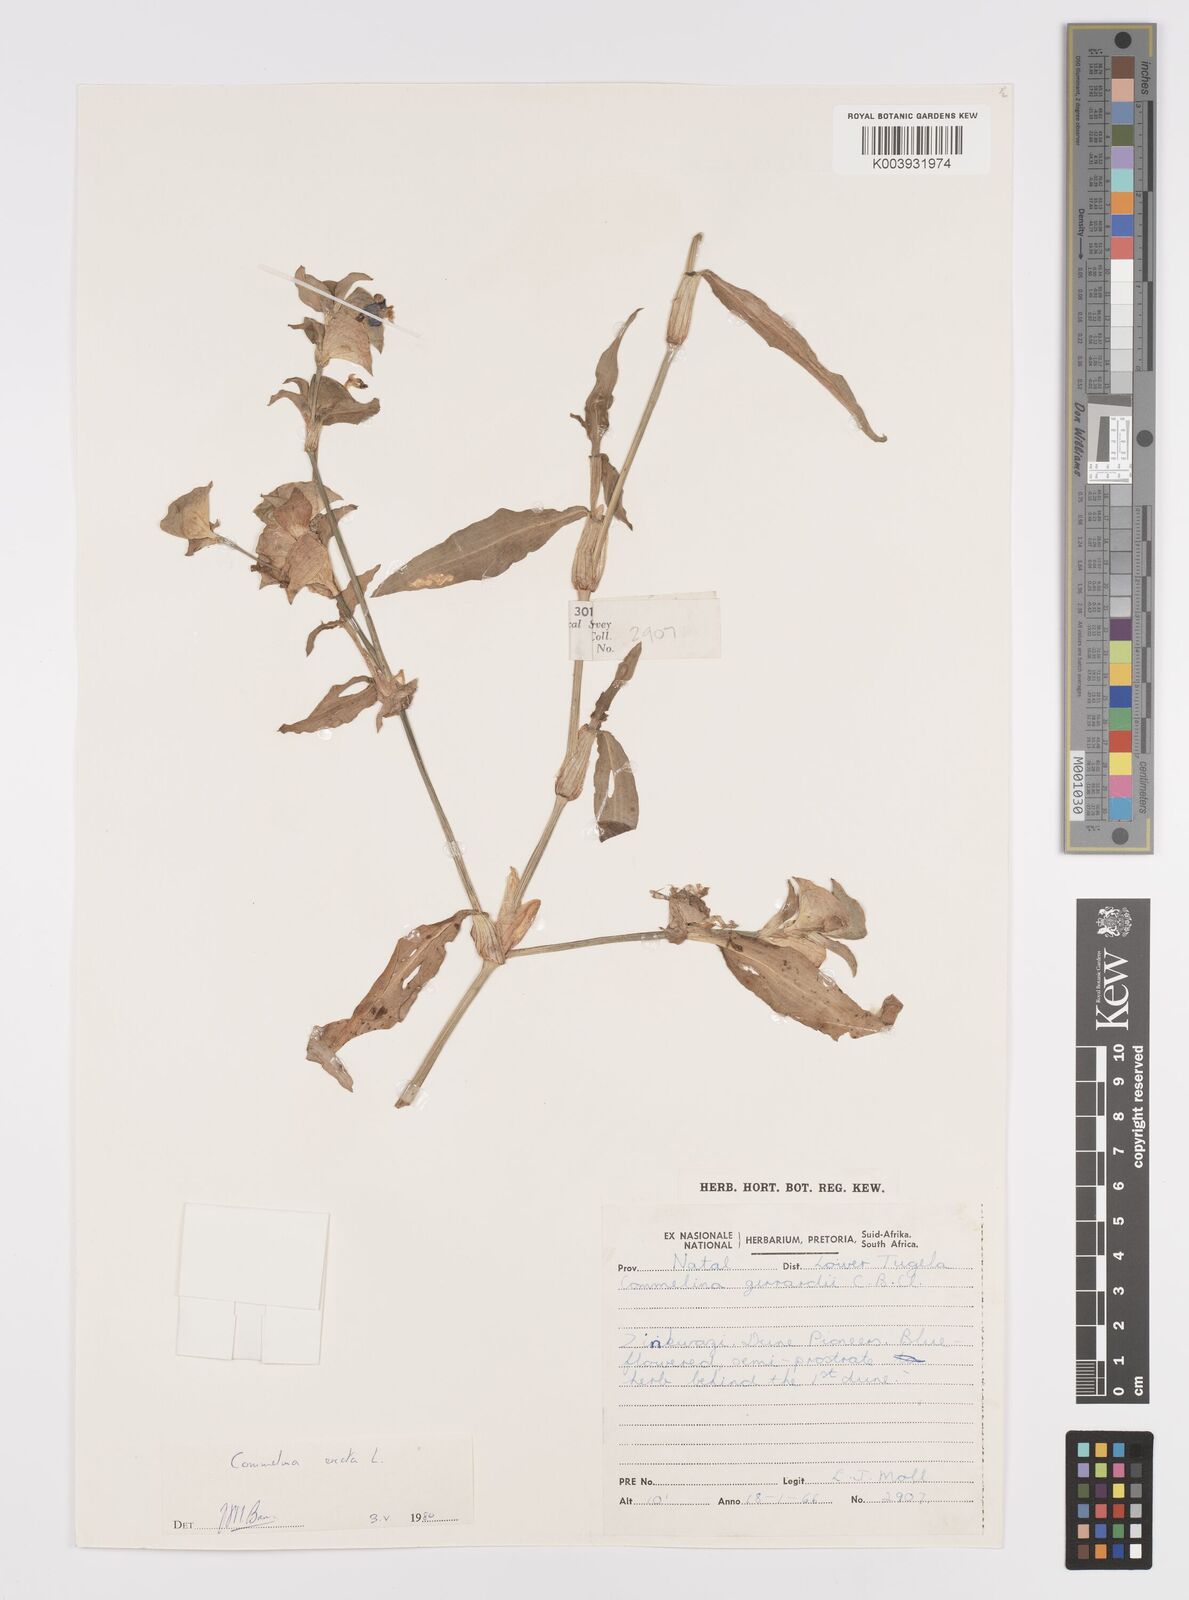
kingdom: Plantae
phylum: Tracheophyta
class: Liliopsida
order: Commelinales
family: Commelinaceae
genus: Commelina
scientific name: Commelina erecta
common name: Blousel blommetjie
